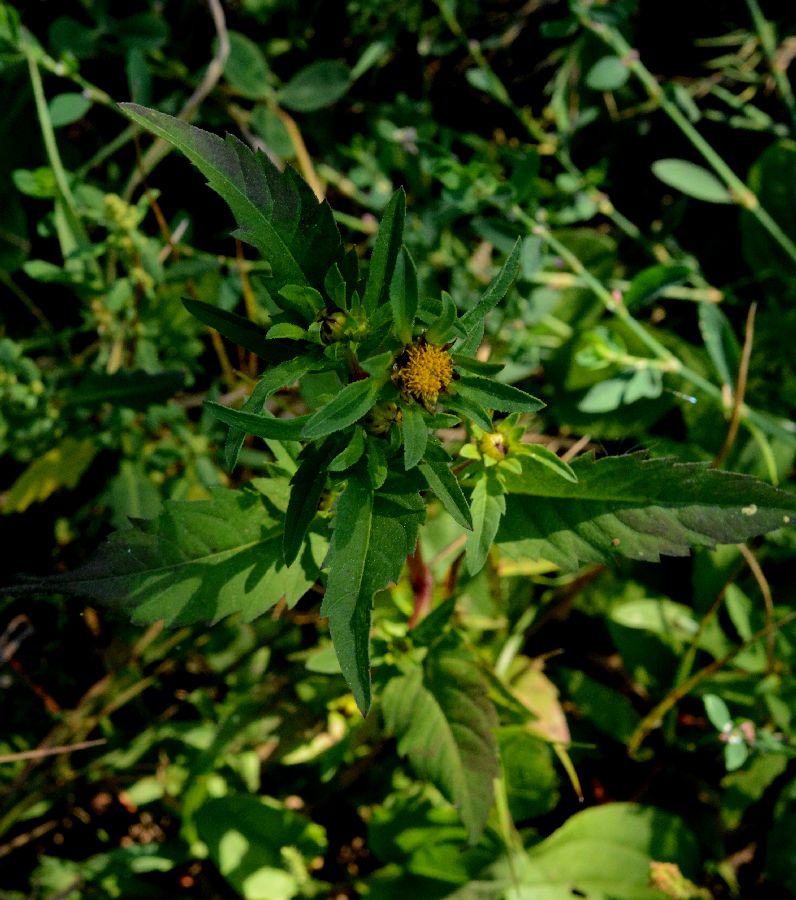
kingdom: Plantae
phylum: Tracheophyta
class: Magnoliopsida
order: Asterales
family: Asteraceae
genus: Bidens
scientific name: Bidens tripartita
